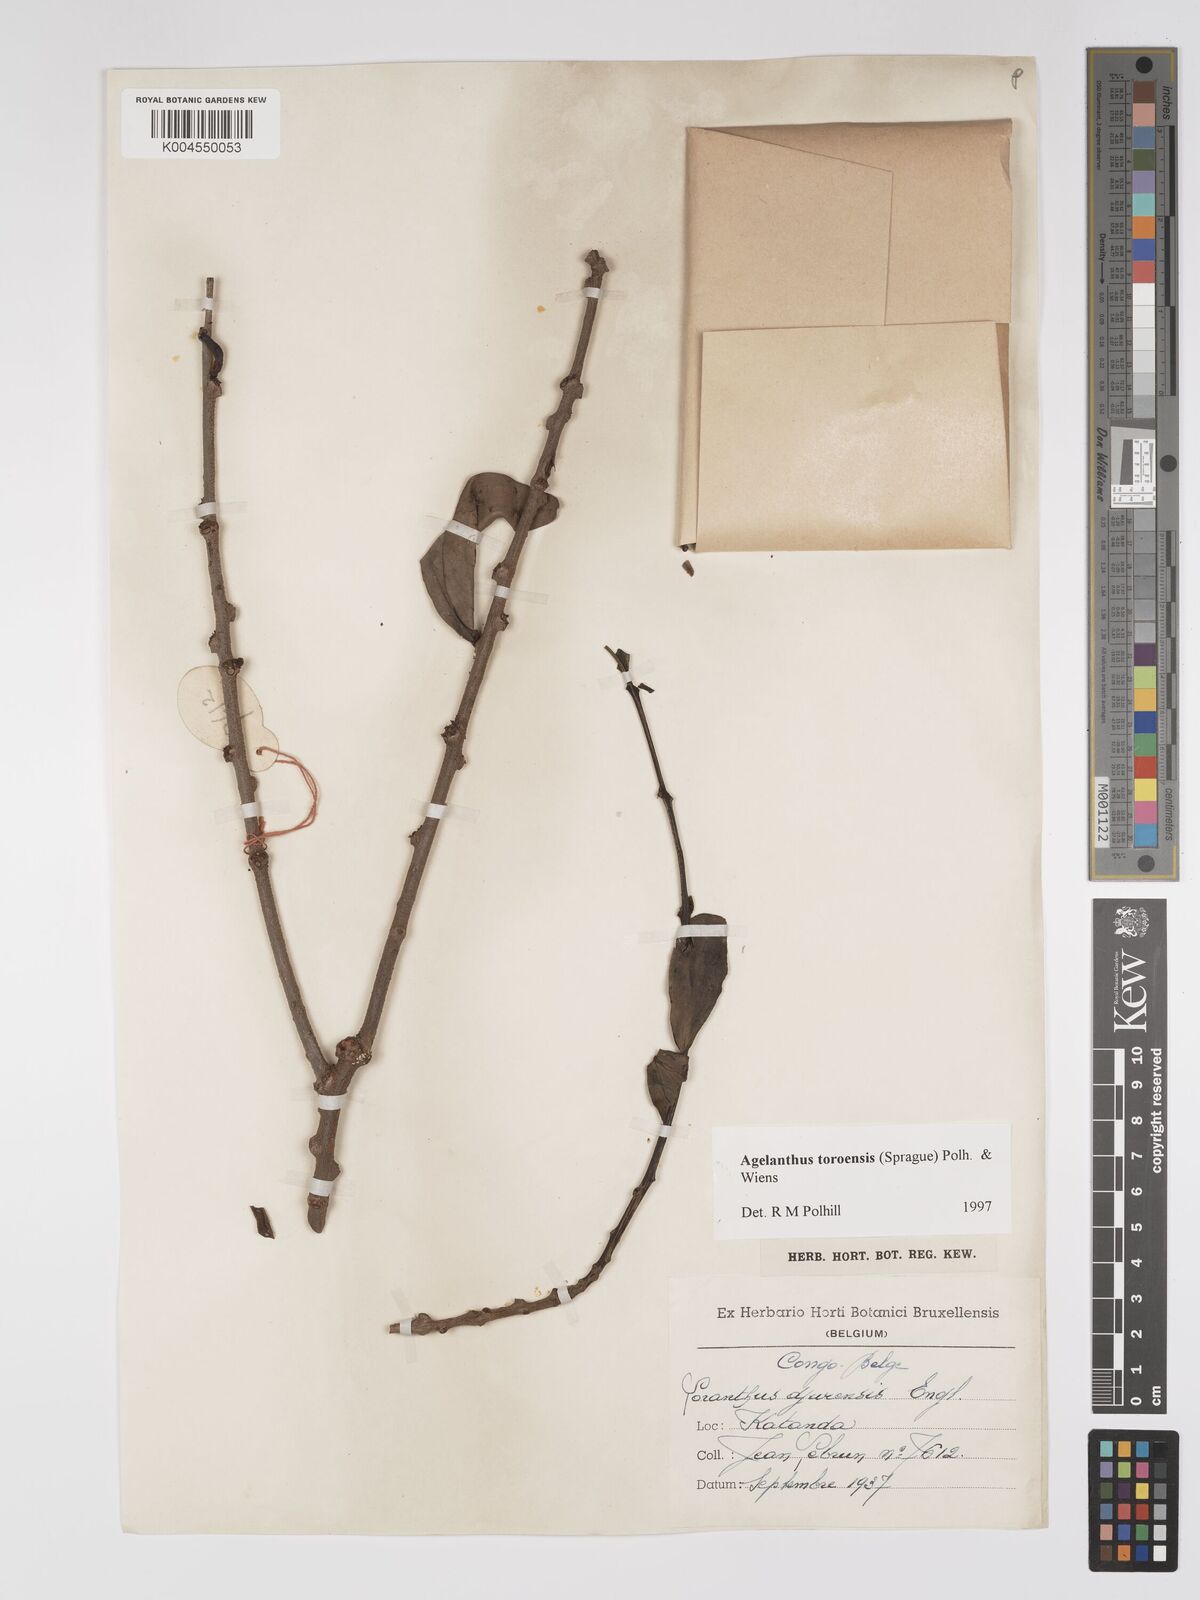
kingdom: Plantae
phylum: Tracheophyta
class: Magnoliopsida
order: Santalales
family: Loranthaceae
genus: Agelanthus
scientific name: Agelanthus toroensis
